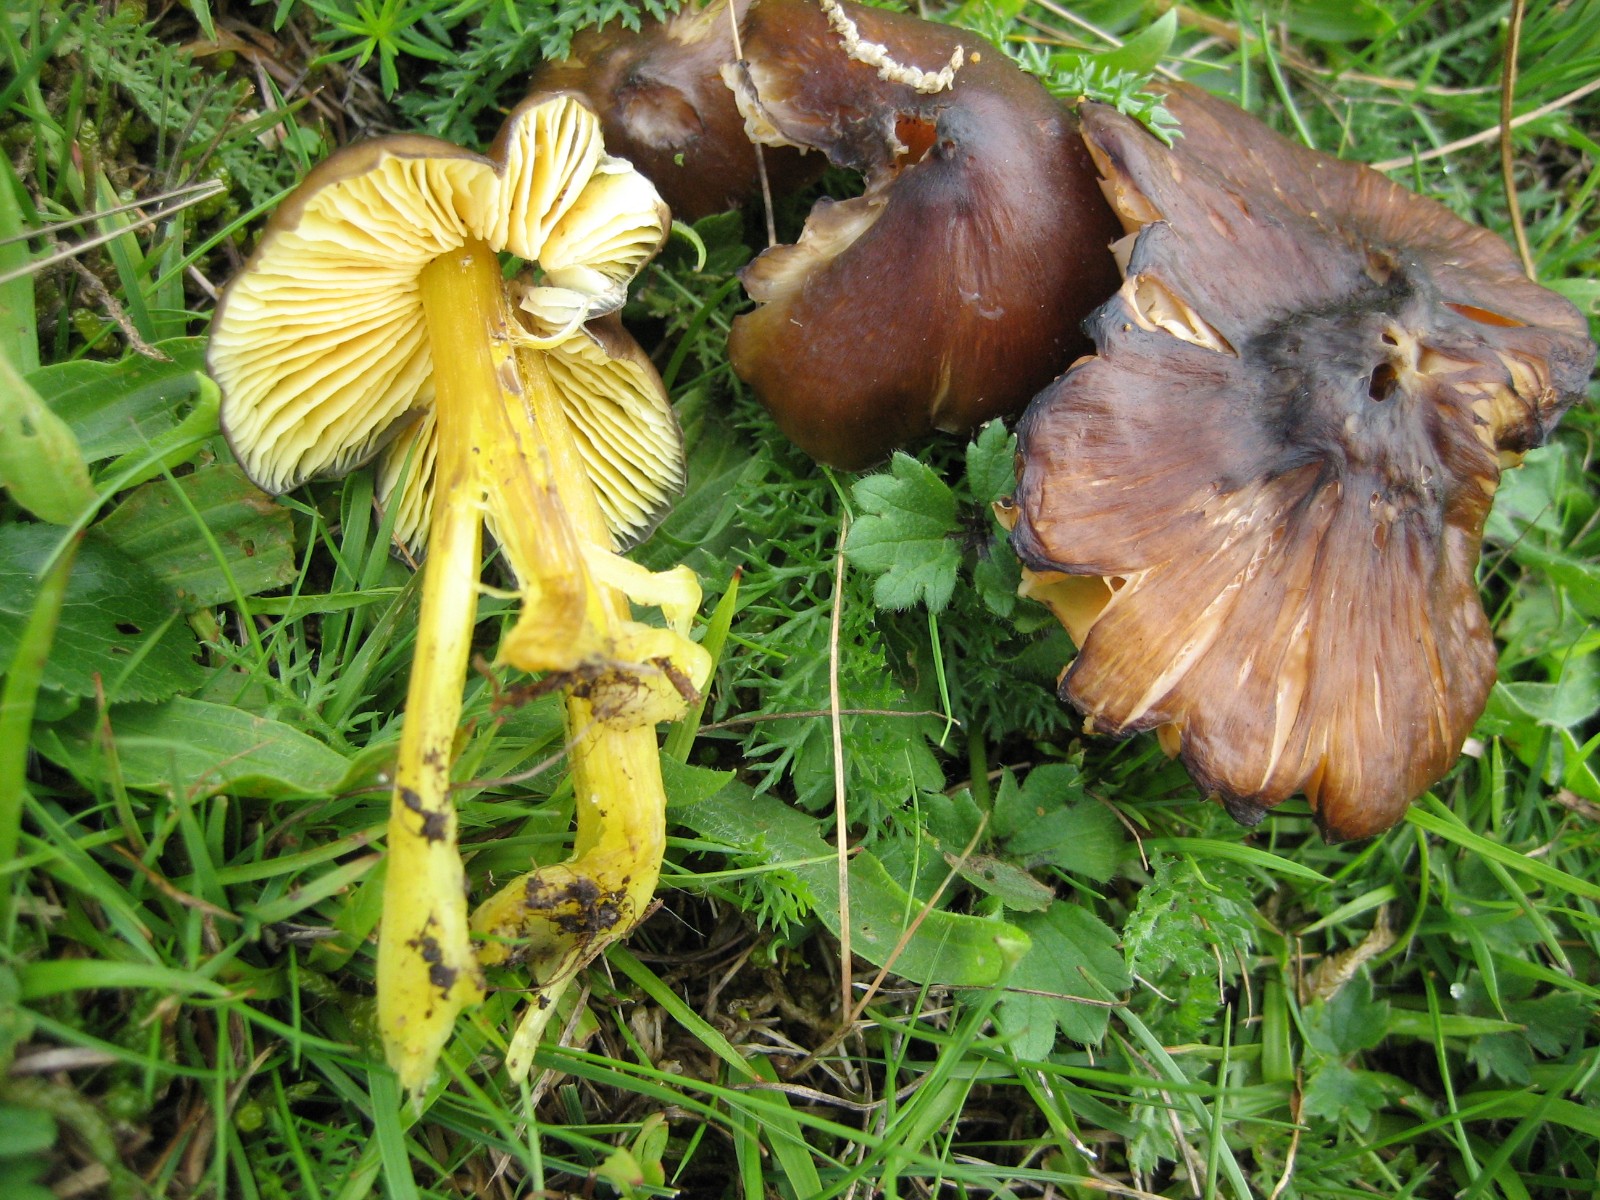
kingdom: Fungi
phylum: Basidiomycota
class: Agaricomycetes
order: Agaricales
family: Hygrophoraceae
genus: Hygrocybe
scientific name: Hygrocybe spadicea
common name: daddelbrun vokshat
